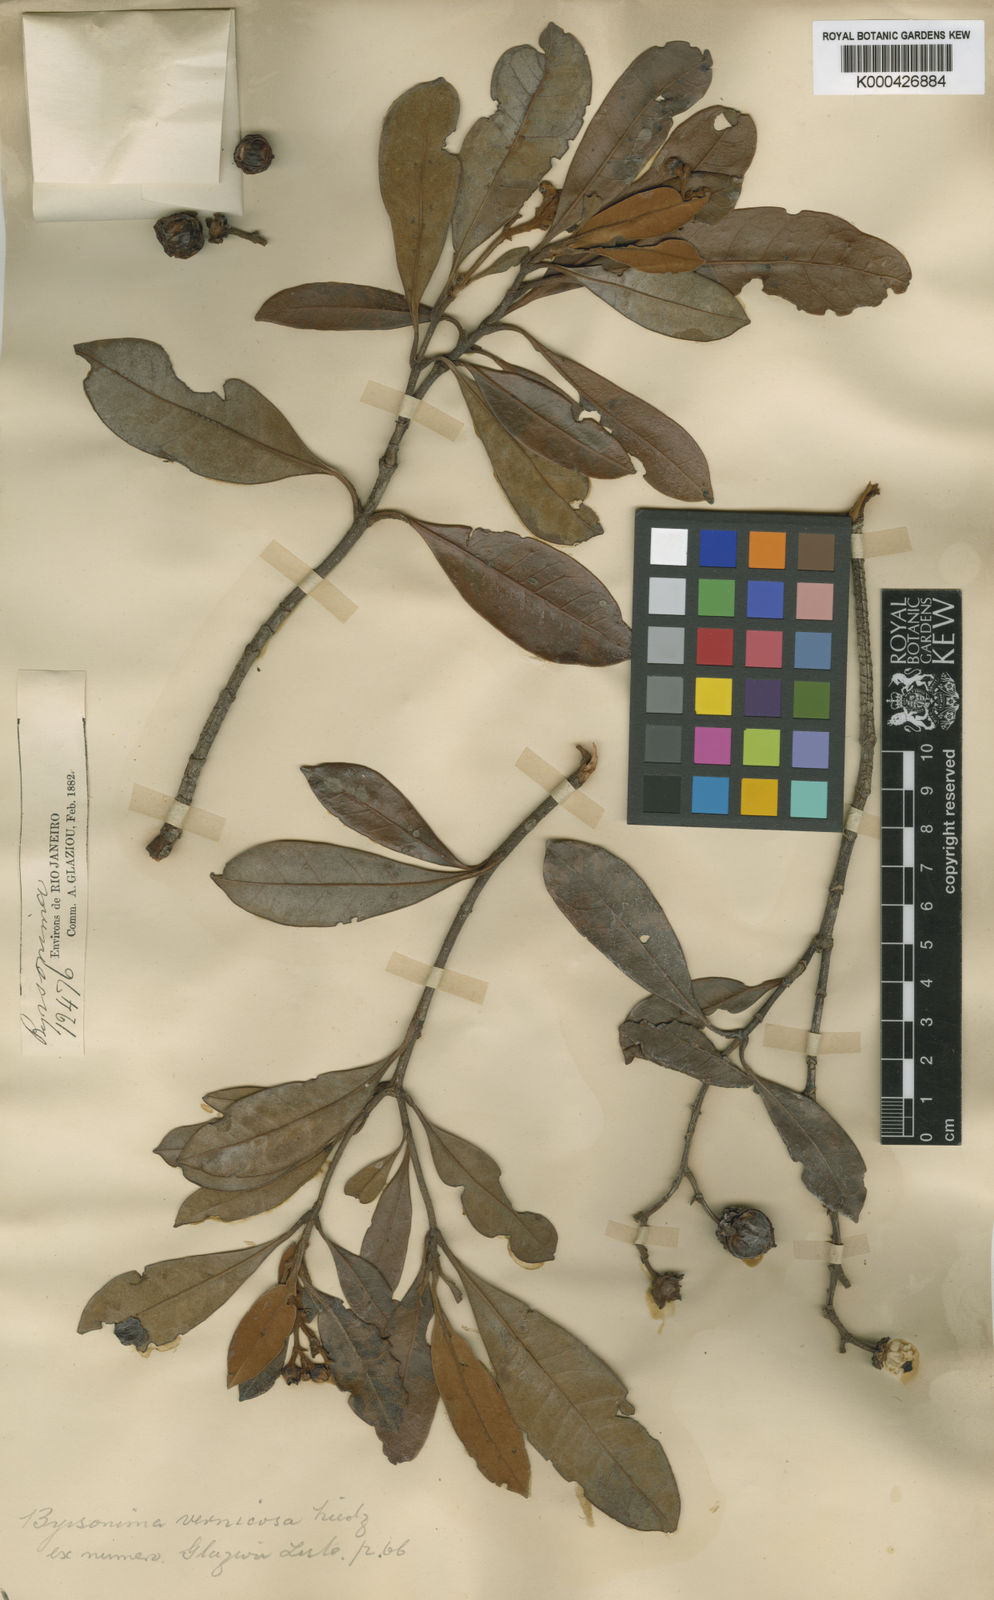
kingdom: Plantae
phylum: Tracheophyta
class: Magnoliopsida
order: Malpighiales
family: Malpighiaceae
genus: Byrsonima
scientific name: Byrsonima vernicosa
